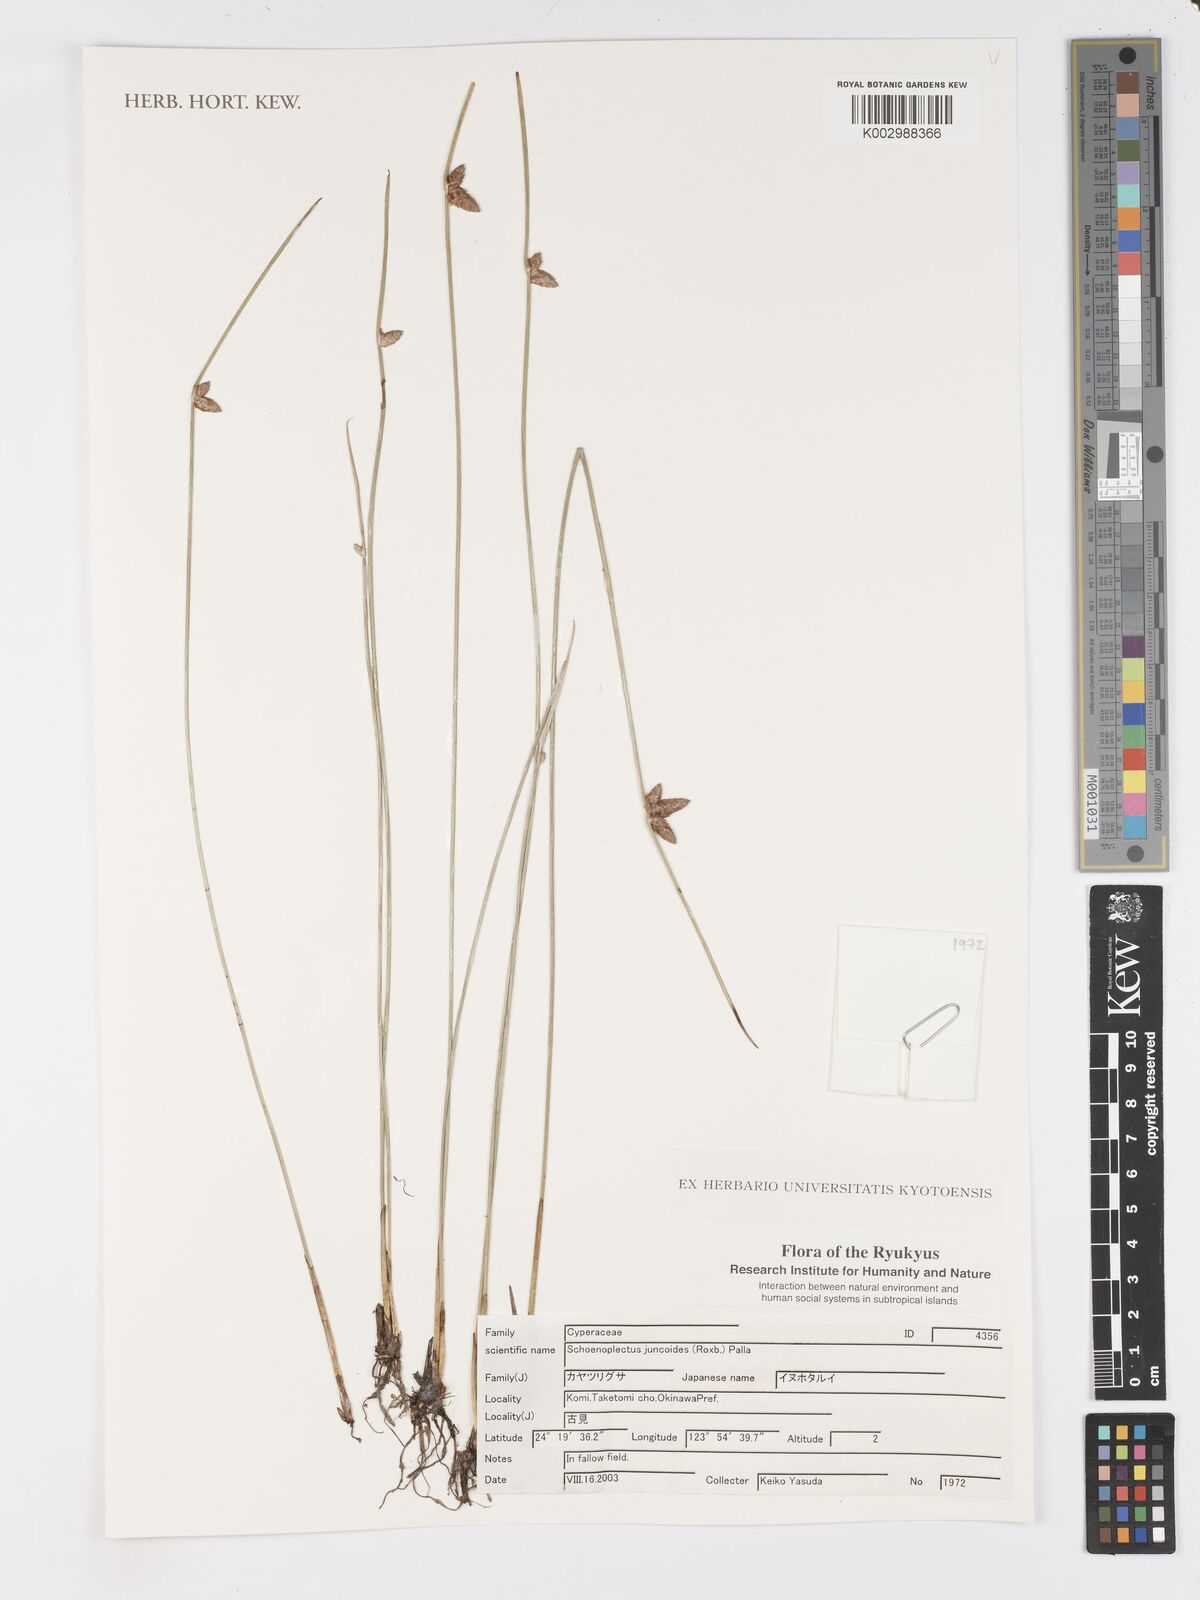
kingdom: Plantae
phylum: Tracheophyta
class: Liliopsida
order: Poales
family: Cyperaceae
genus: Schoenoplectiella
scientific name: Schoenoplectiella juncoides
